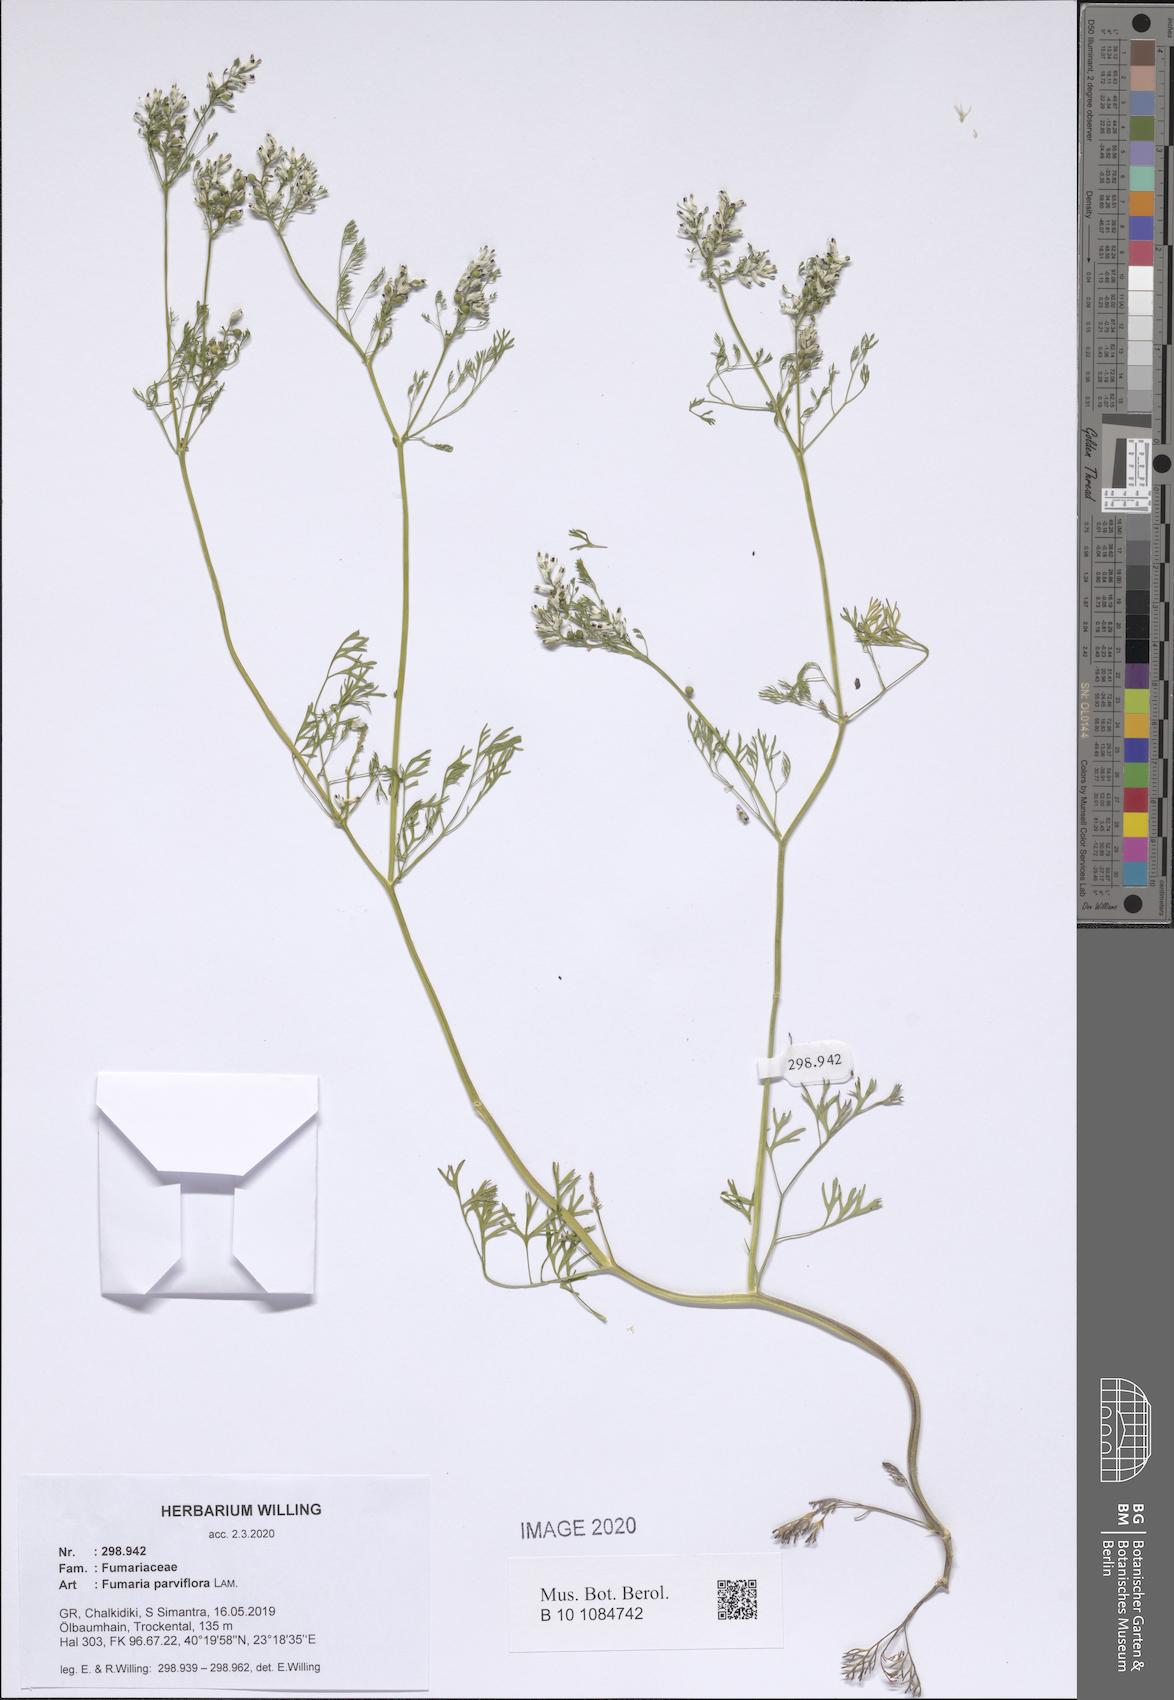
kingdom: Plantae
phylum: Tracheophyta
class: Magnoliopsida
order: Ranunculales
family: Papaveraceae
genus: Fumaria
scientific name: Fumaria parviflora
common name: Fine-leaved fumitory
